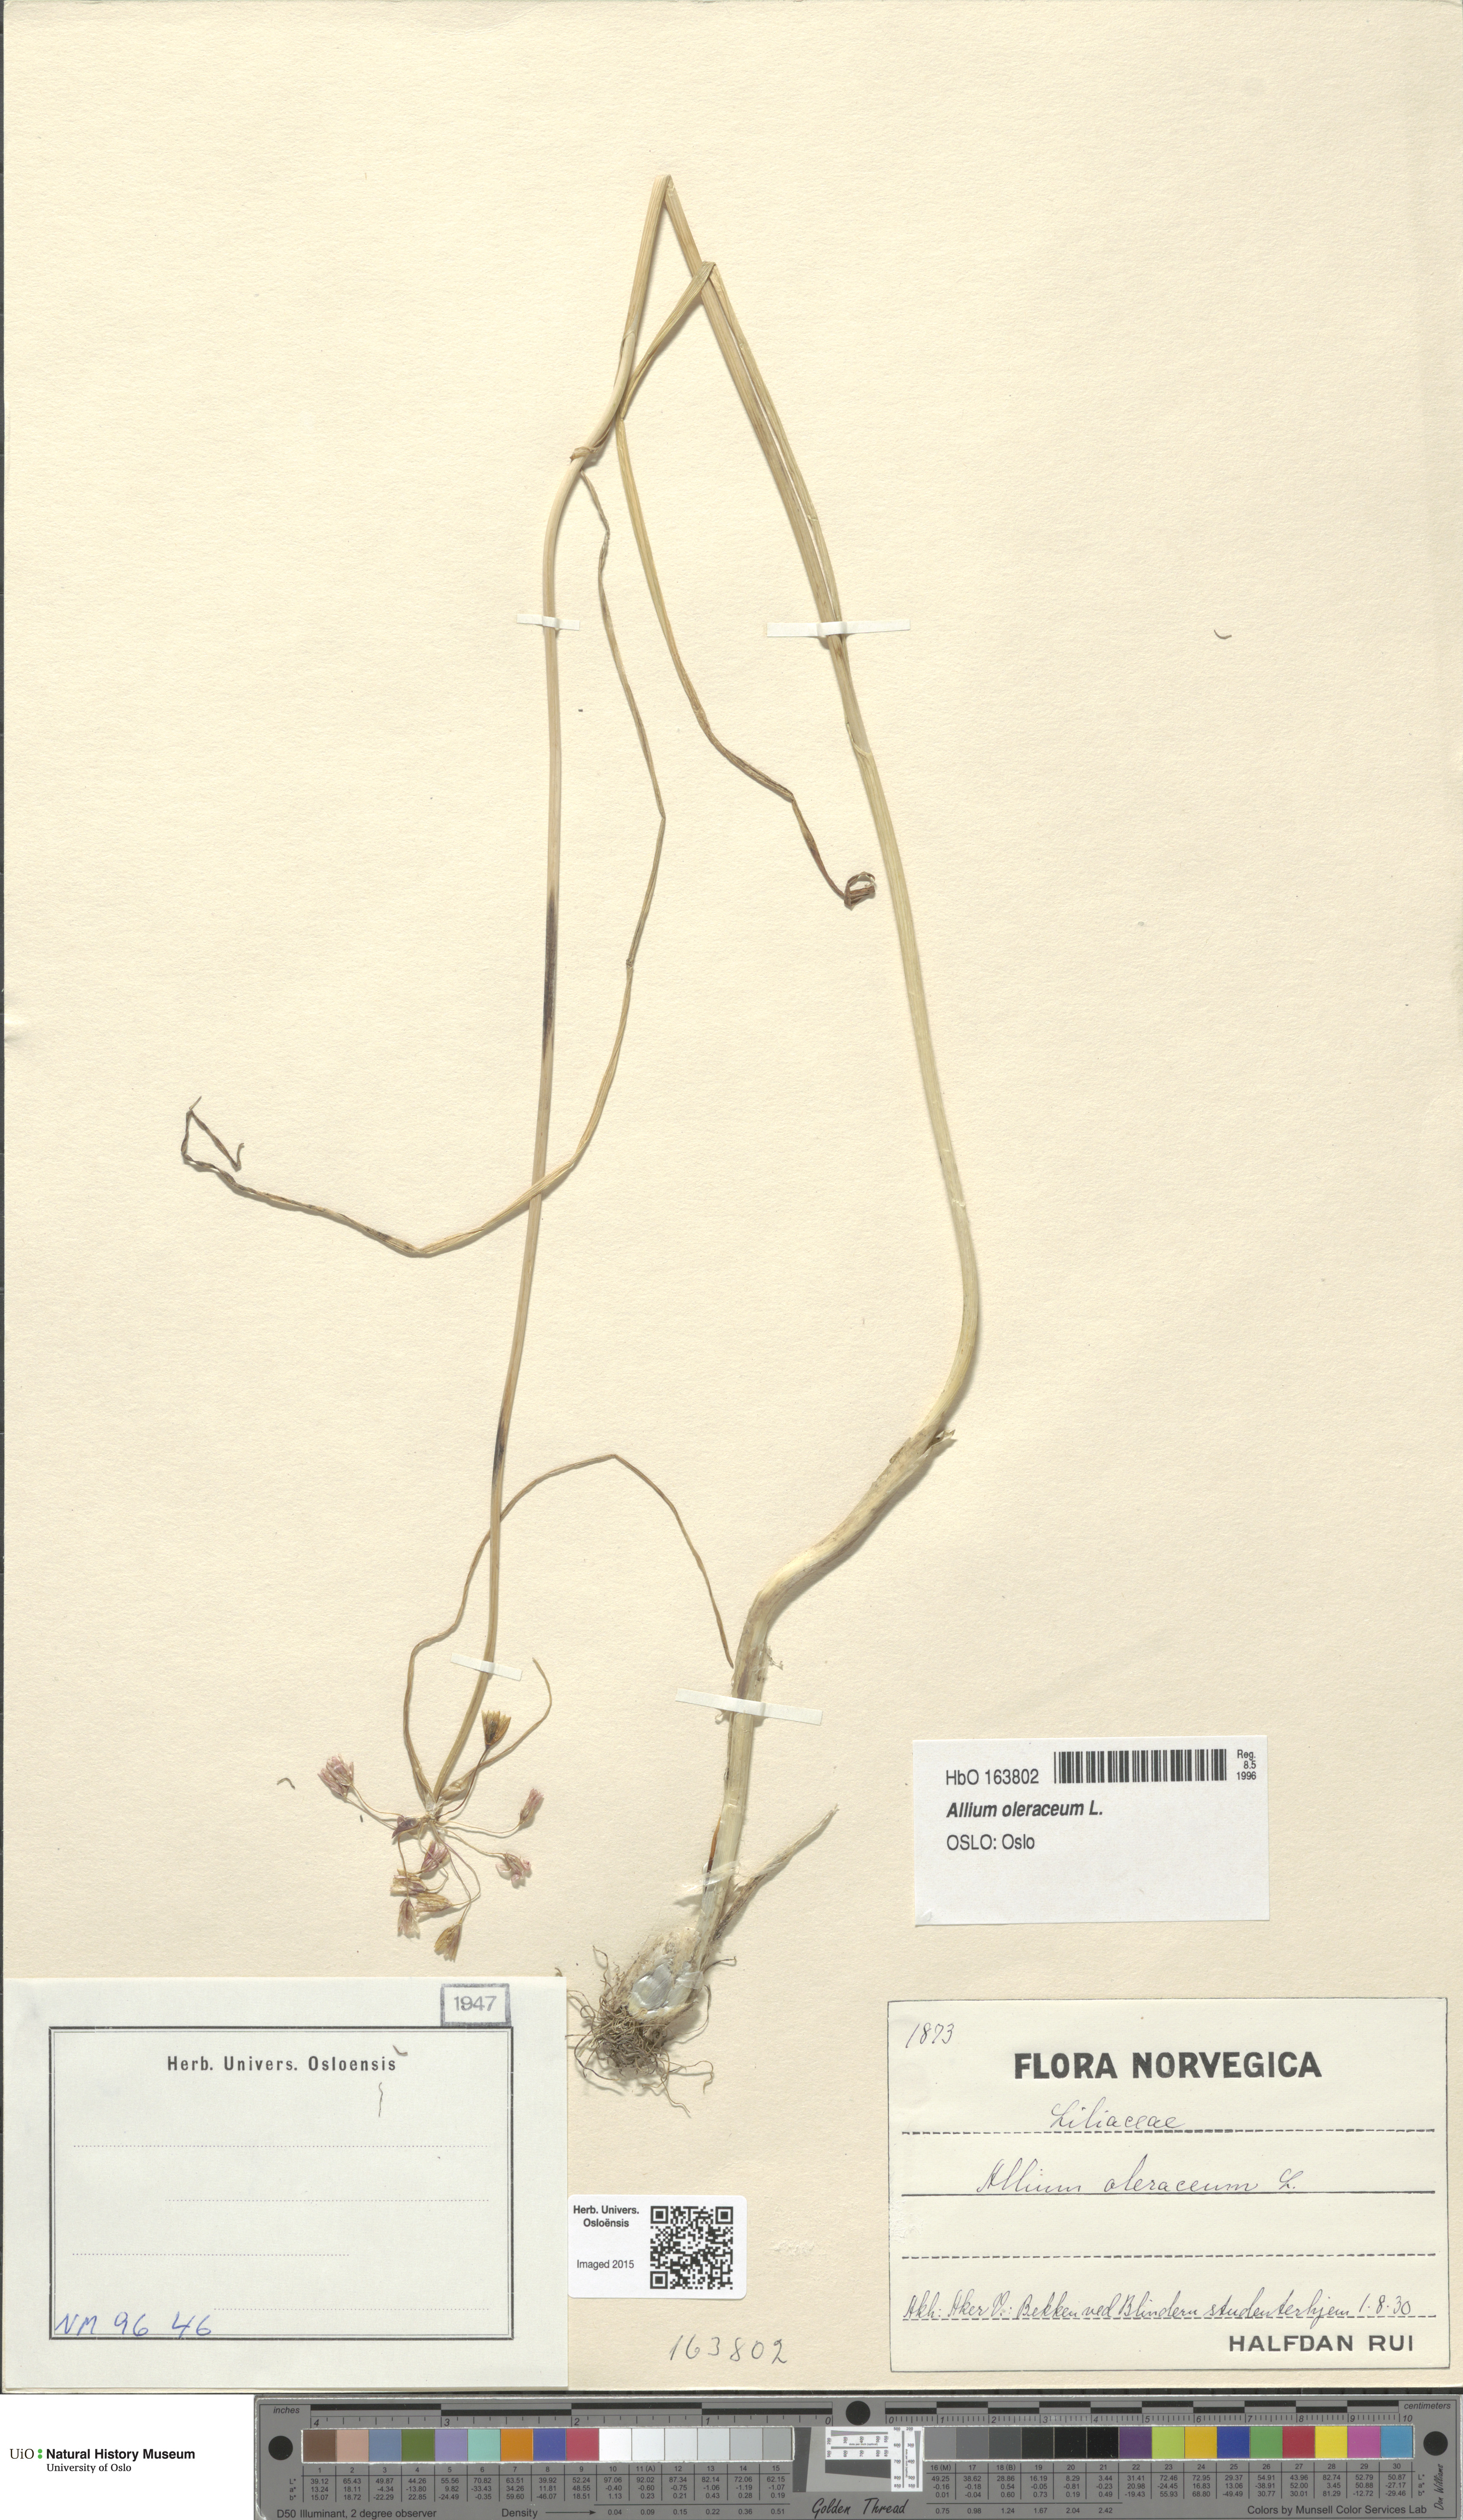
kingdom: Plantae
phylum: Tracheophyta
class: Liliopsida
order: Asparagales
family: Amaryllidaceae
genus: Allium
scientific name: Allium oleraceum
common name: Field garlic
